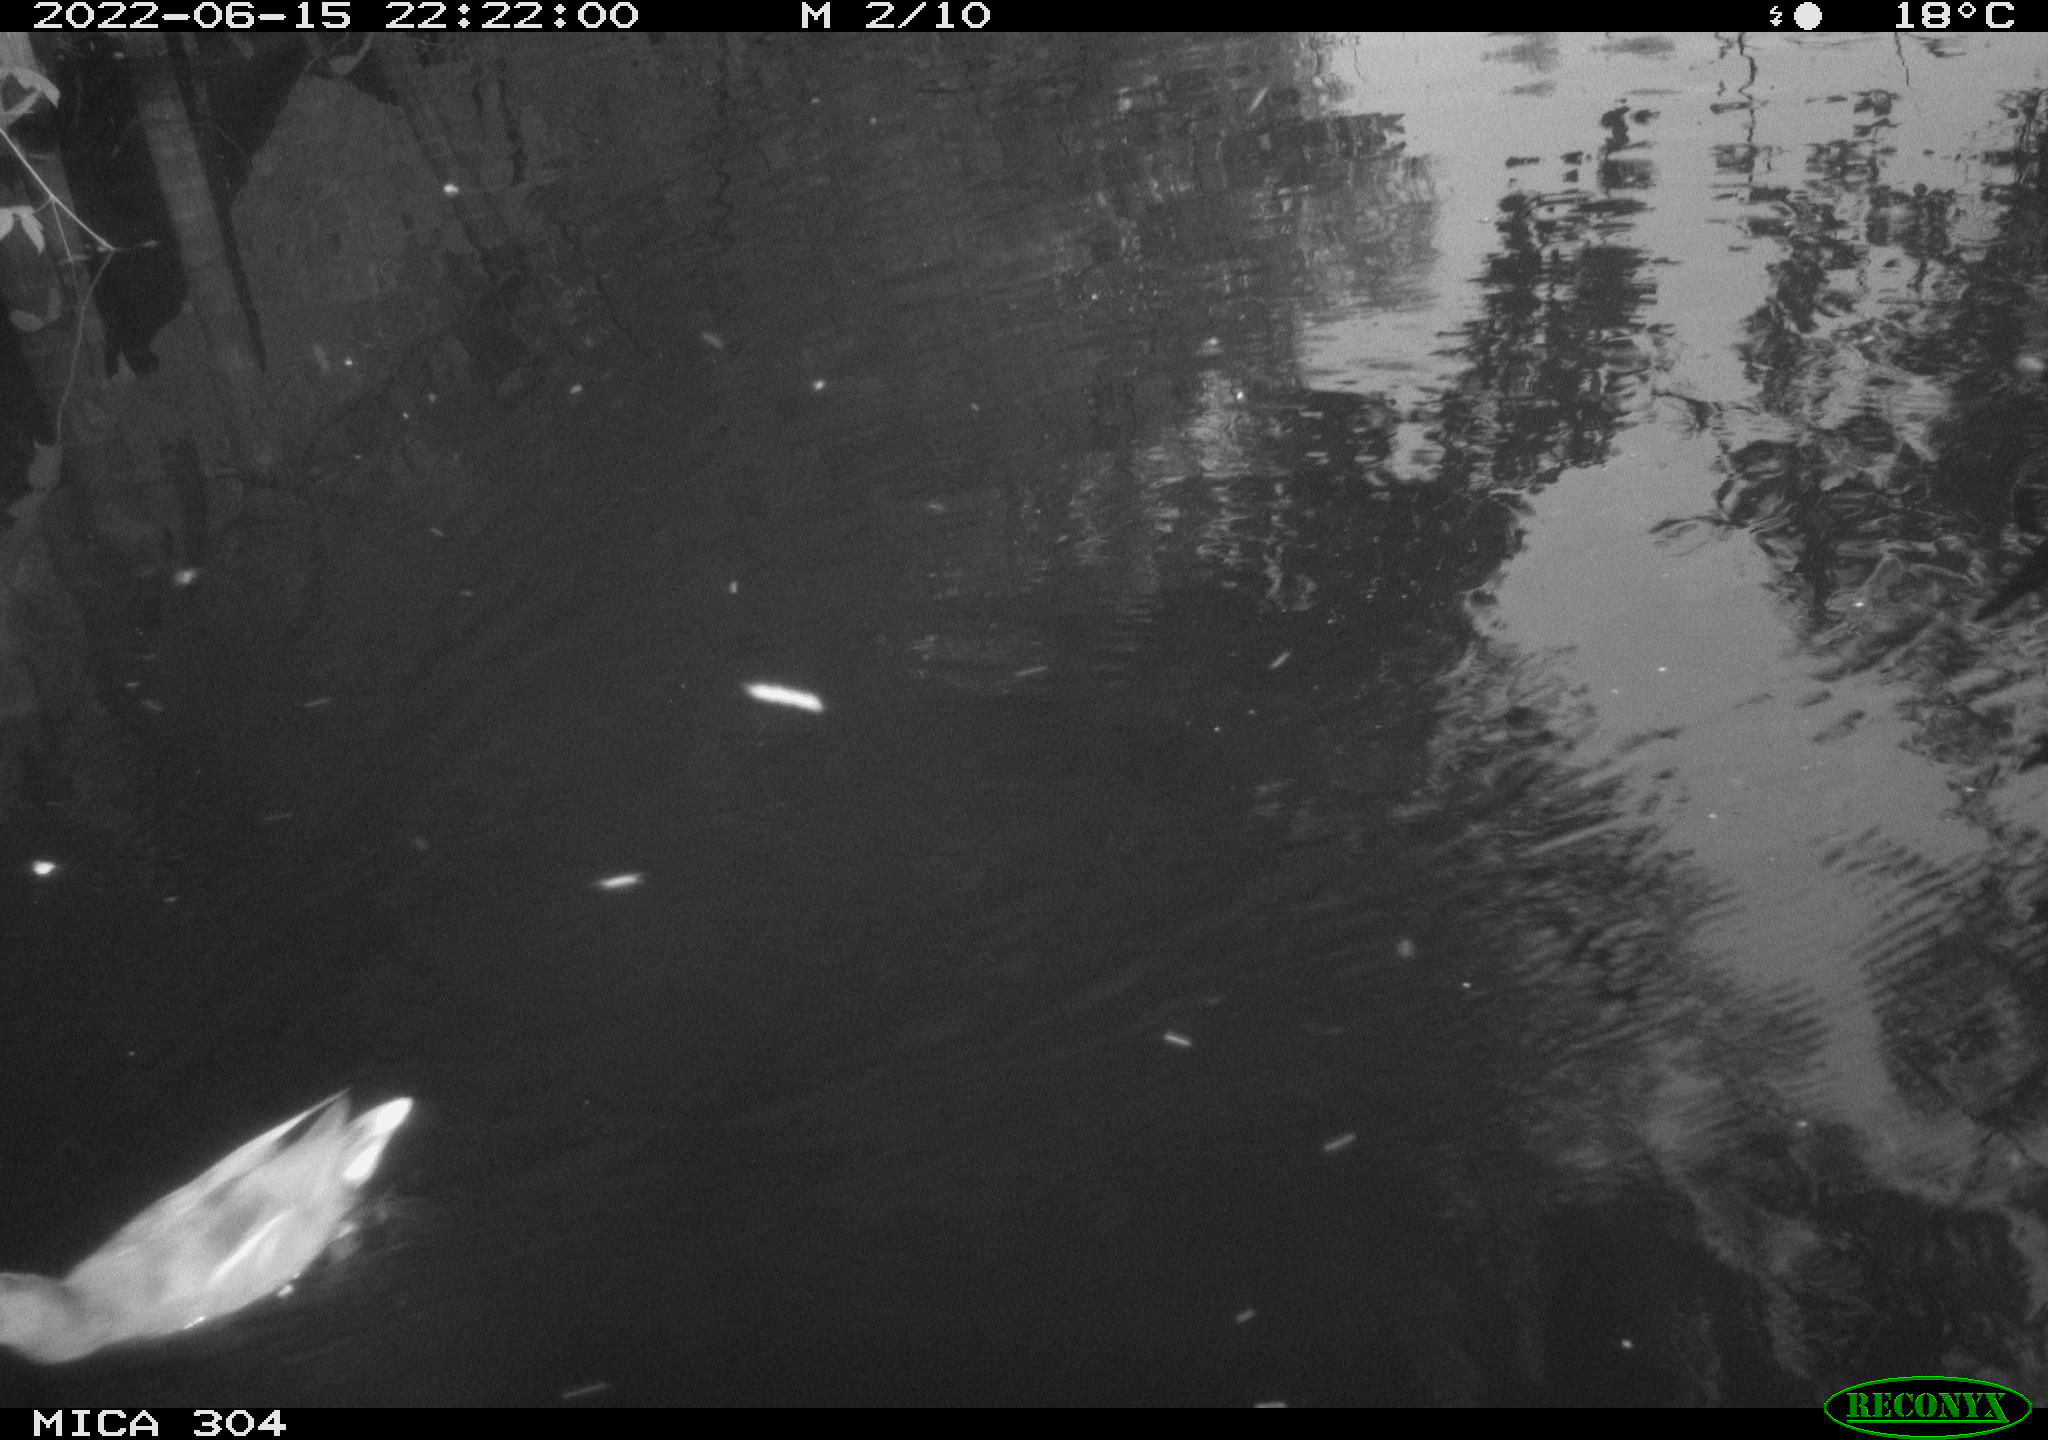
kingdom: Animalia
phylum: Chordata
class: Aves
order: Gruiformes
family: Rallidae
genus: Gallinula
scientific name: Gallinula chloropus
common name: Common moorhen
